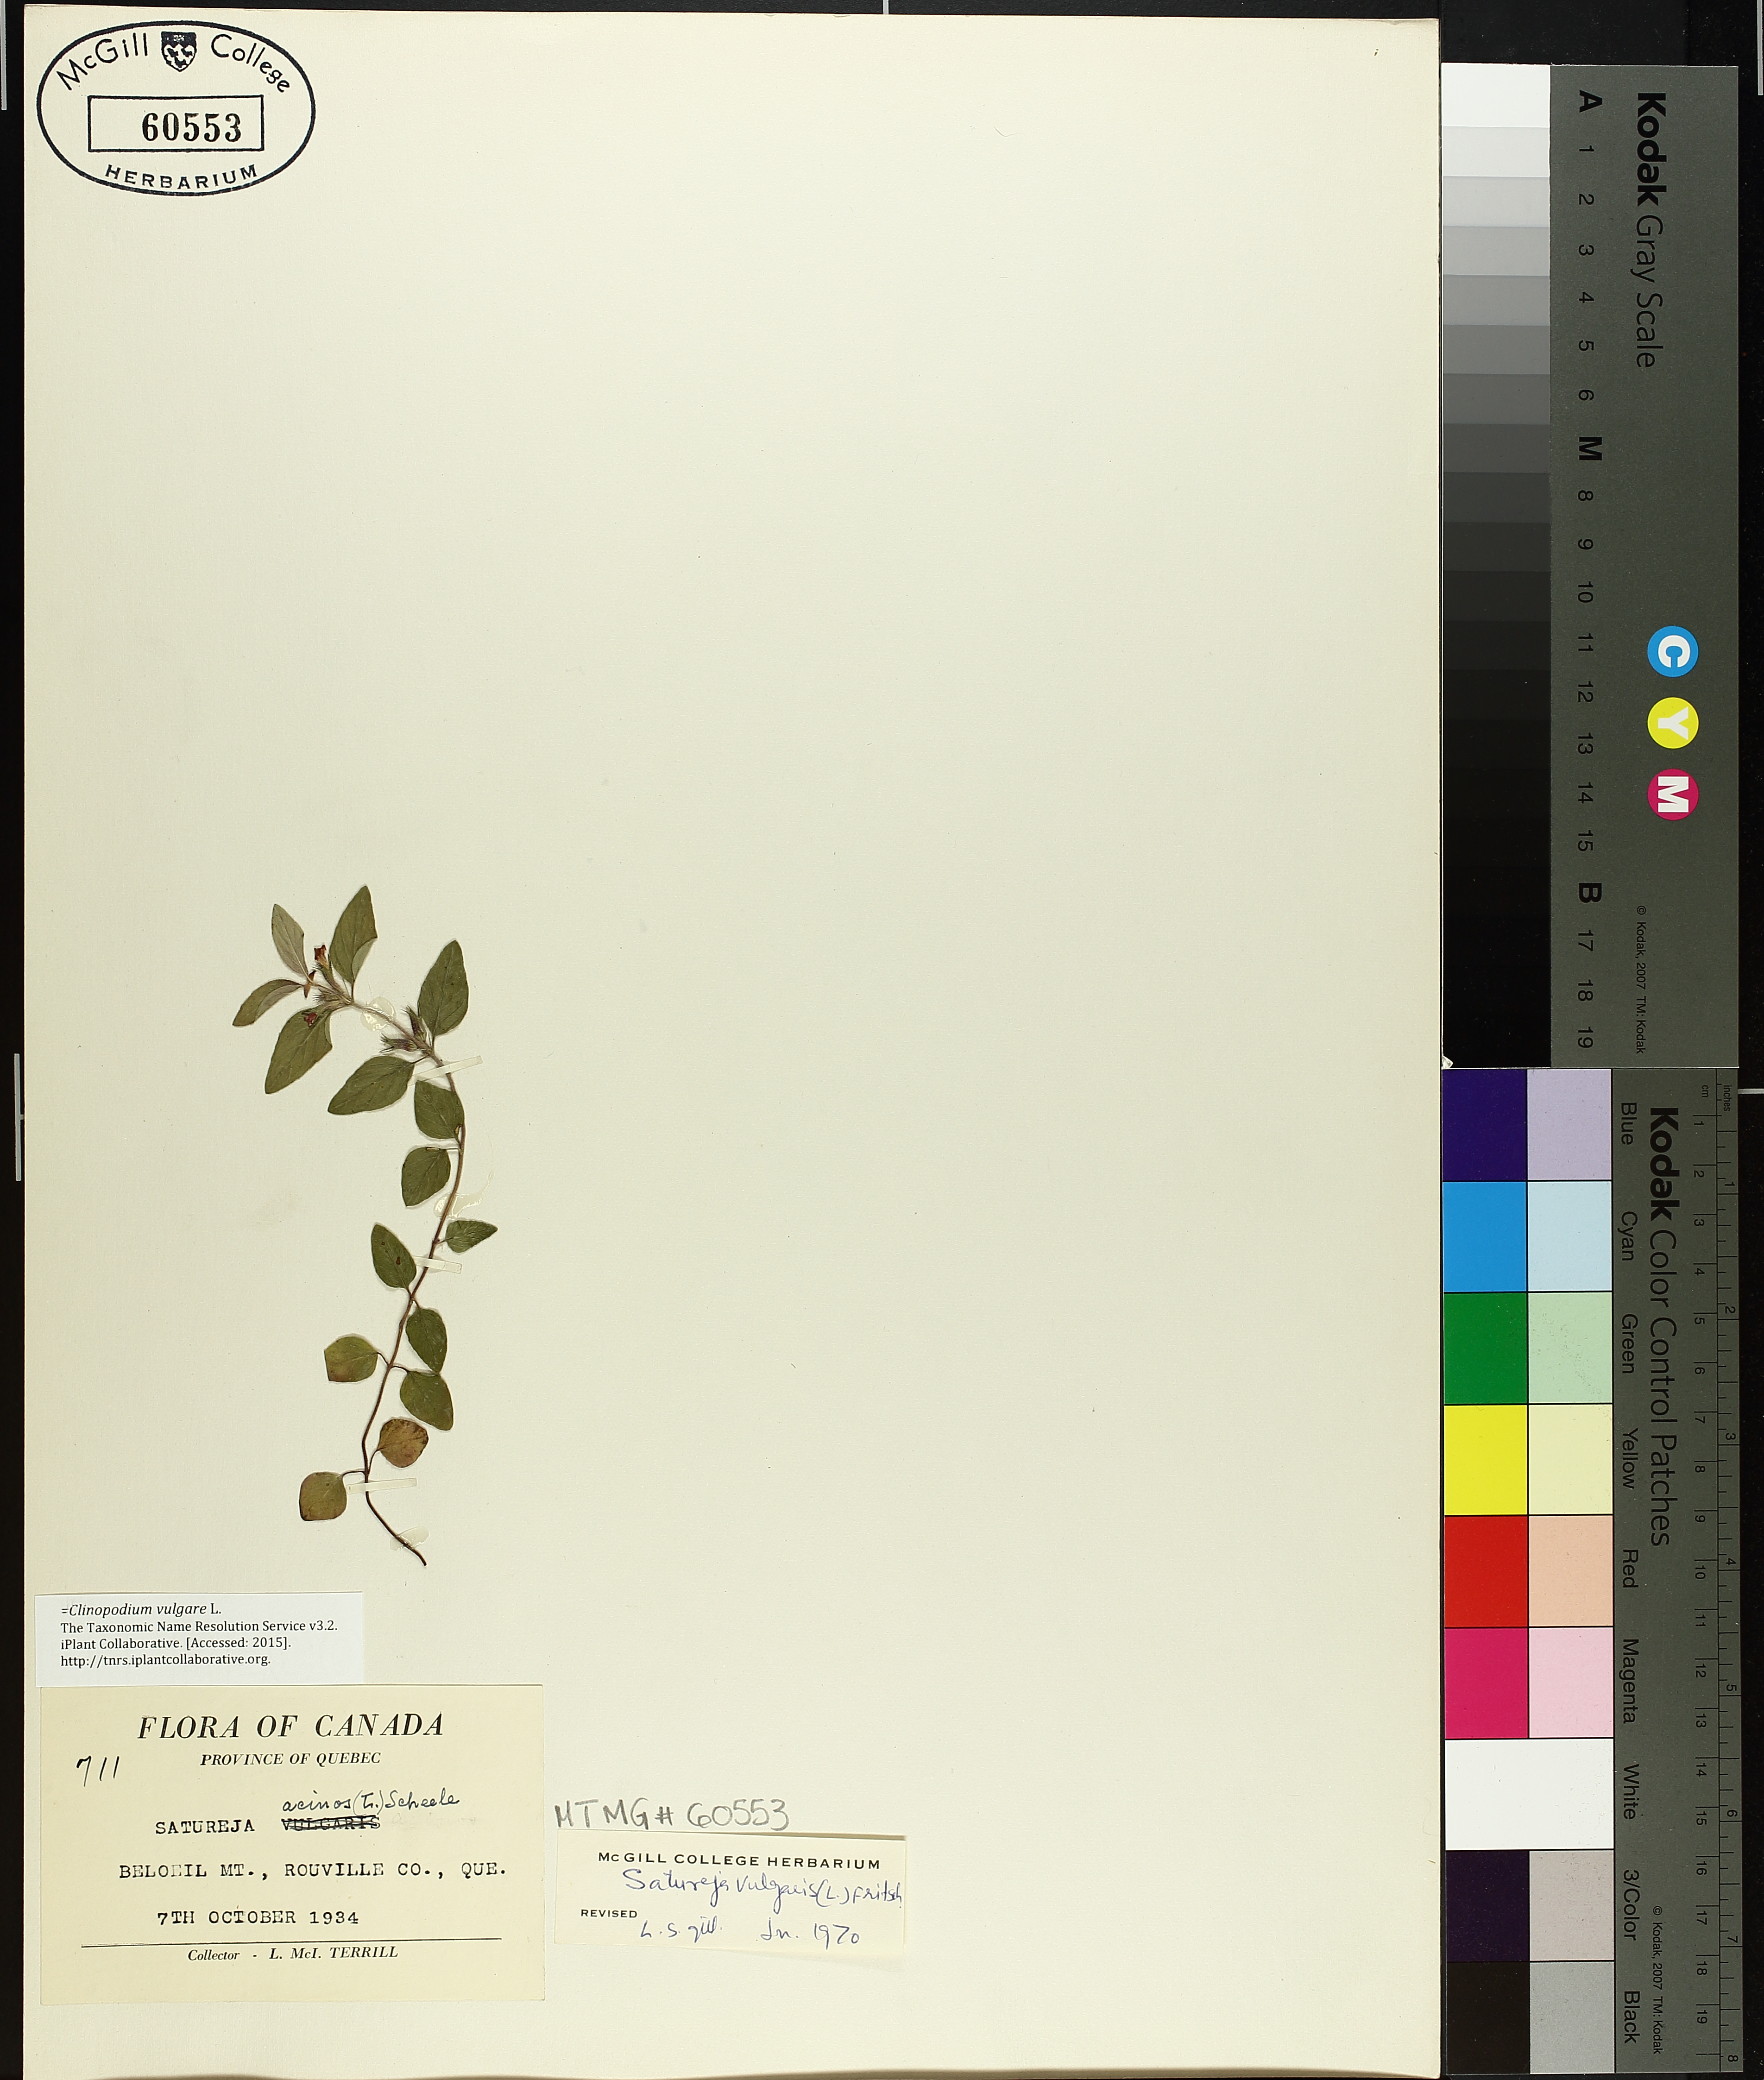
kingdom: Plantae
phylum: Tracheophyta
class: Magnoliopsida
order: Lamiales
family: Lamiaceae
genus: Clinopodium
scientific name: Clinopodium vulgare
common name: Wild basil
